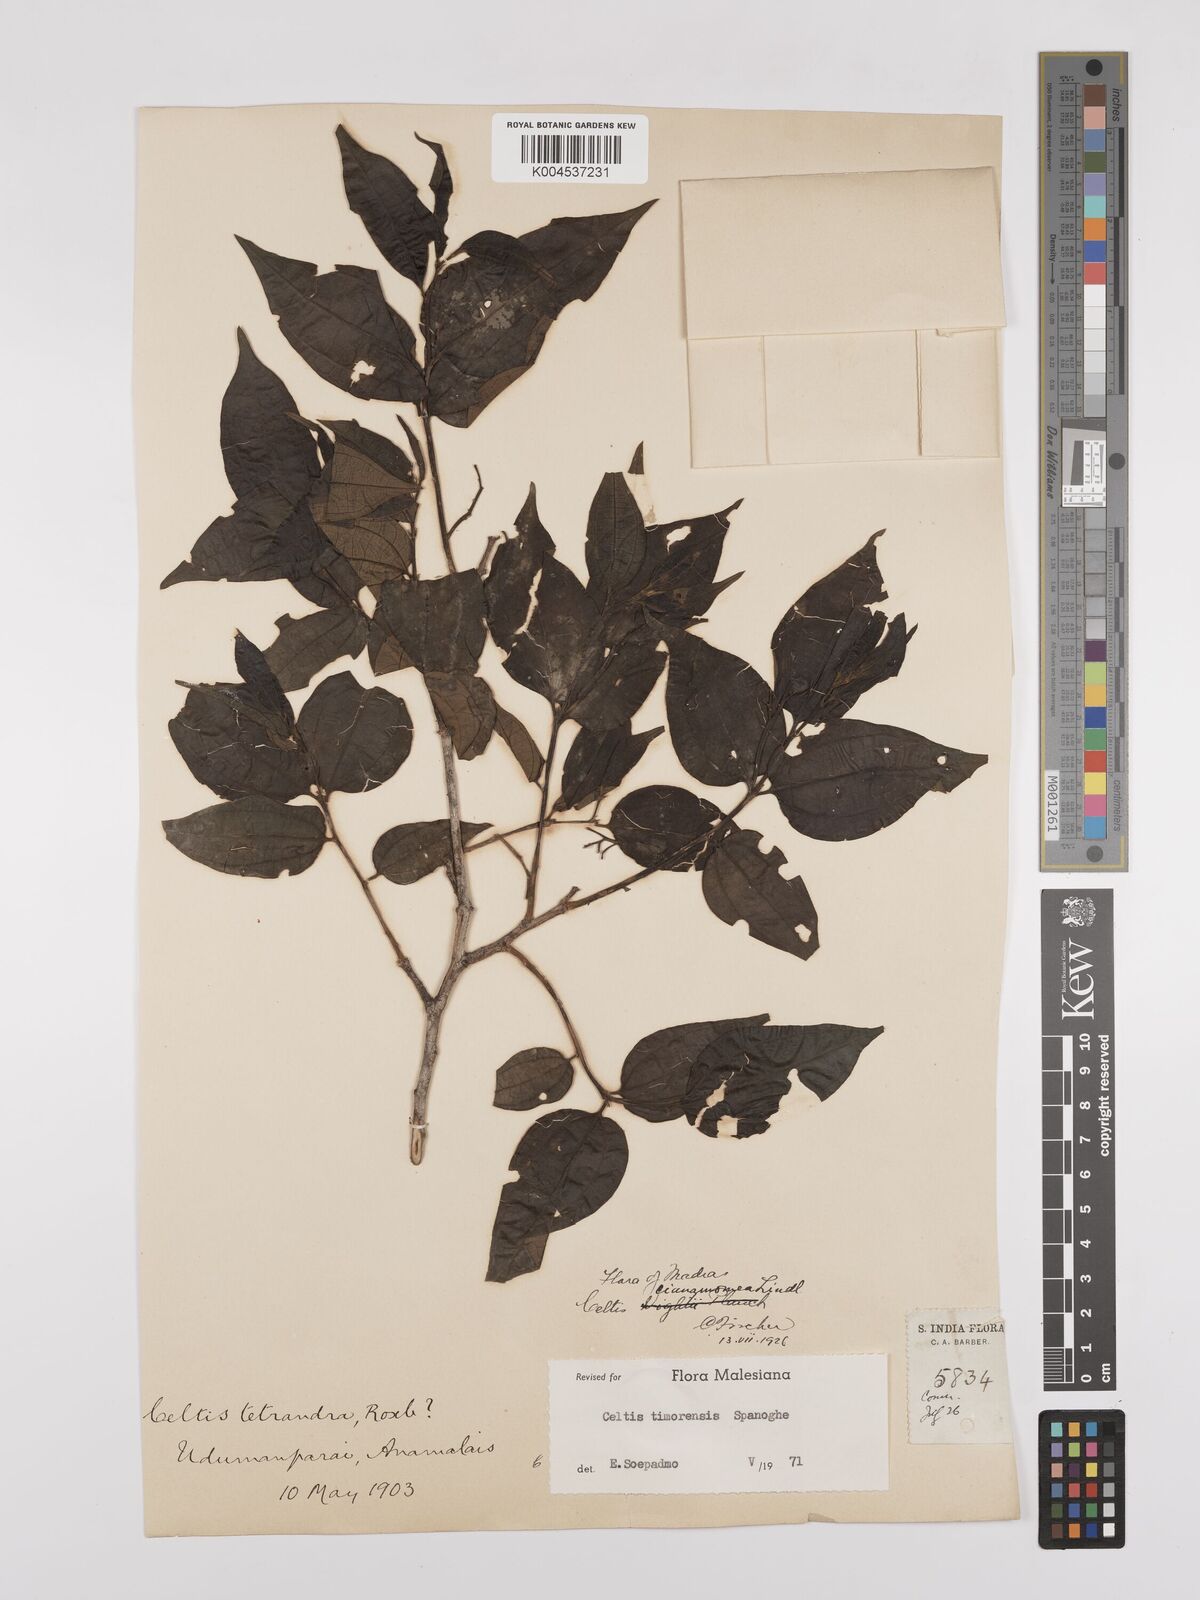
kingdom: Plantae
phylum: Tracheophyta
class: Magnoliopsida
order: Rosales
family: Cannabaceae
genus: Celtis
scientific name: Celtis timorensis
